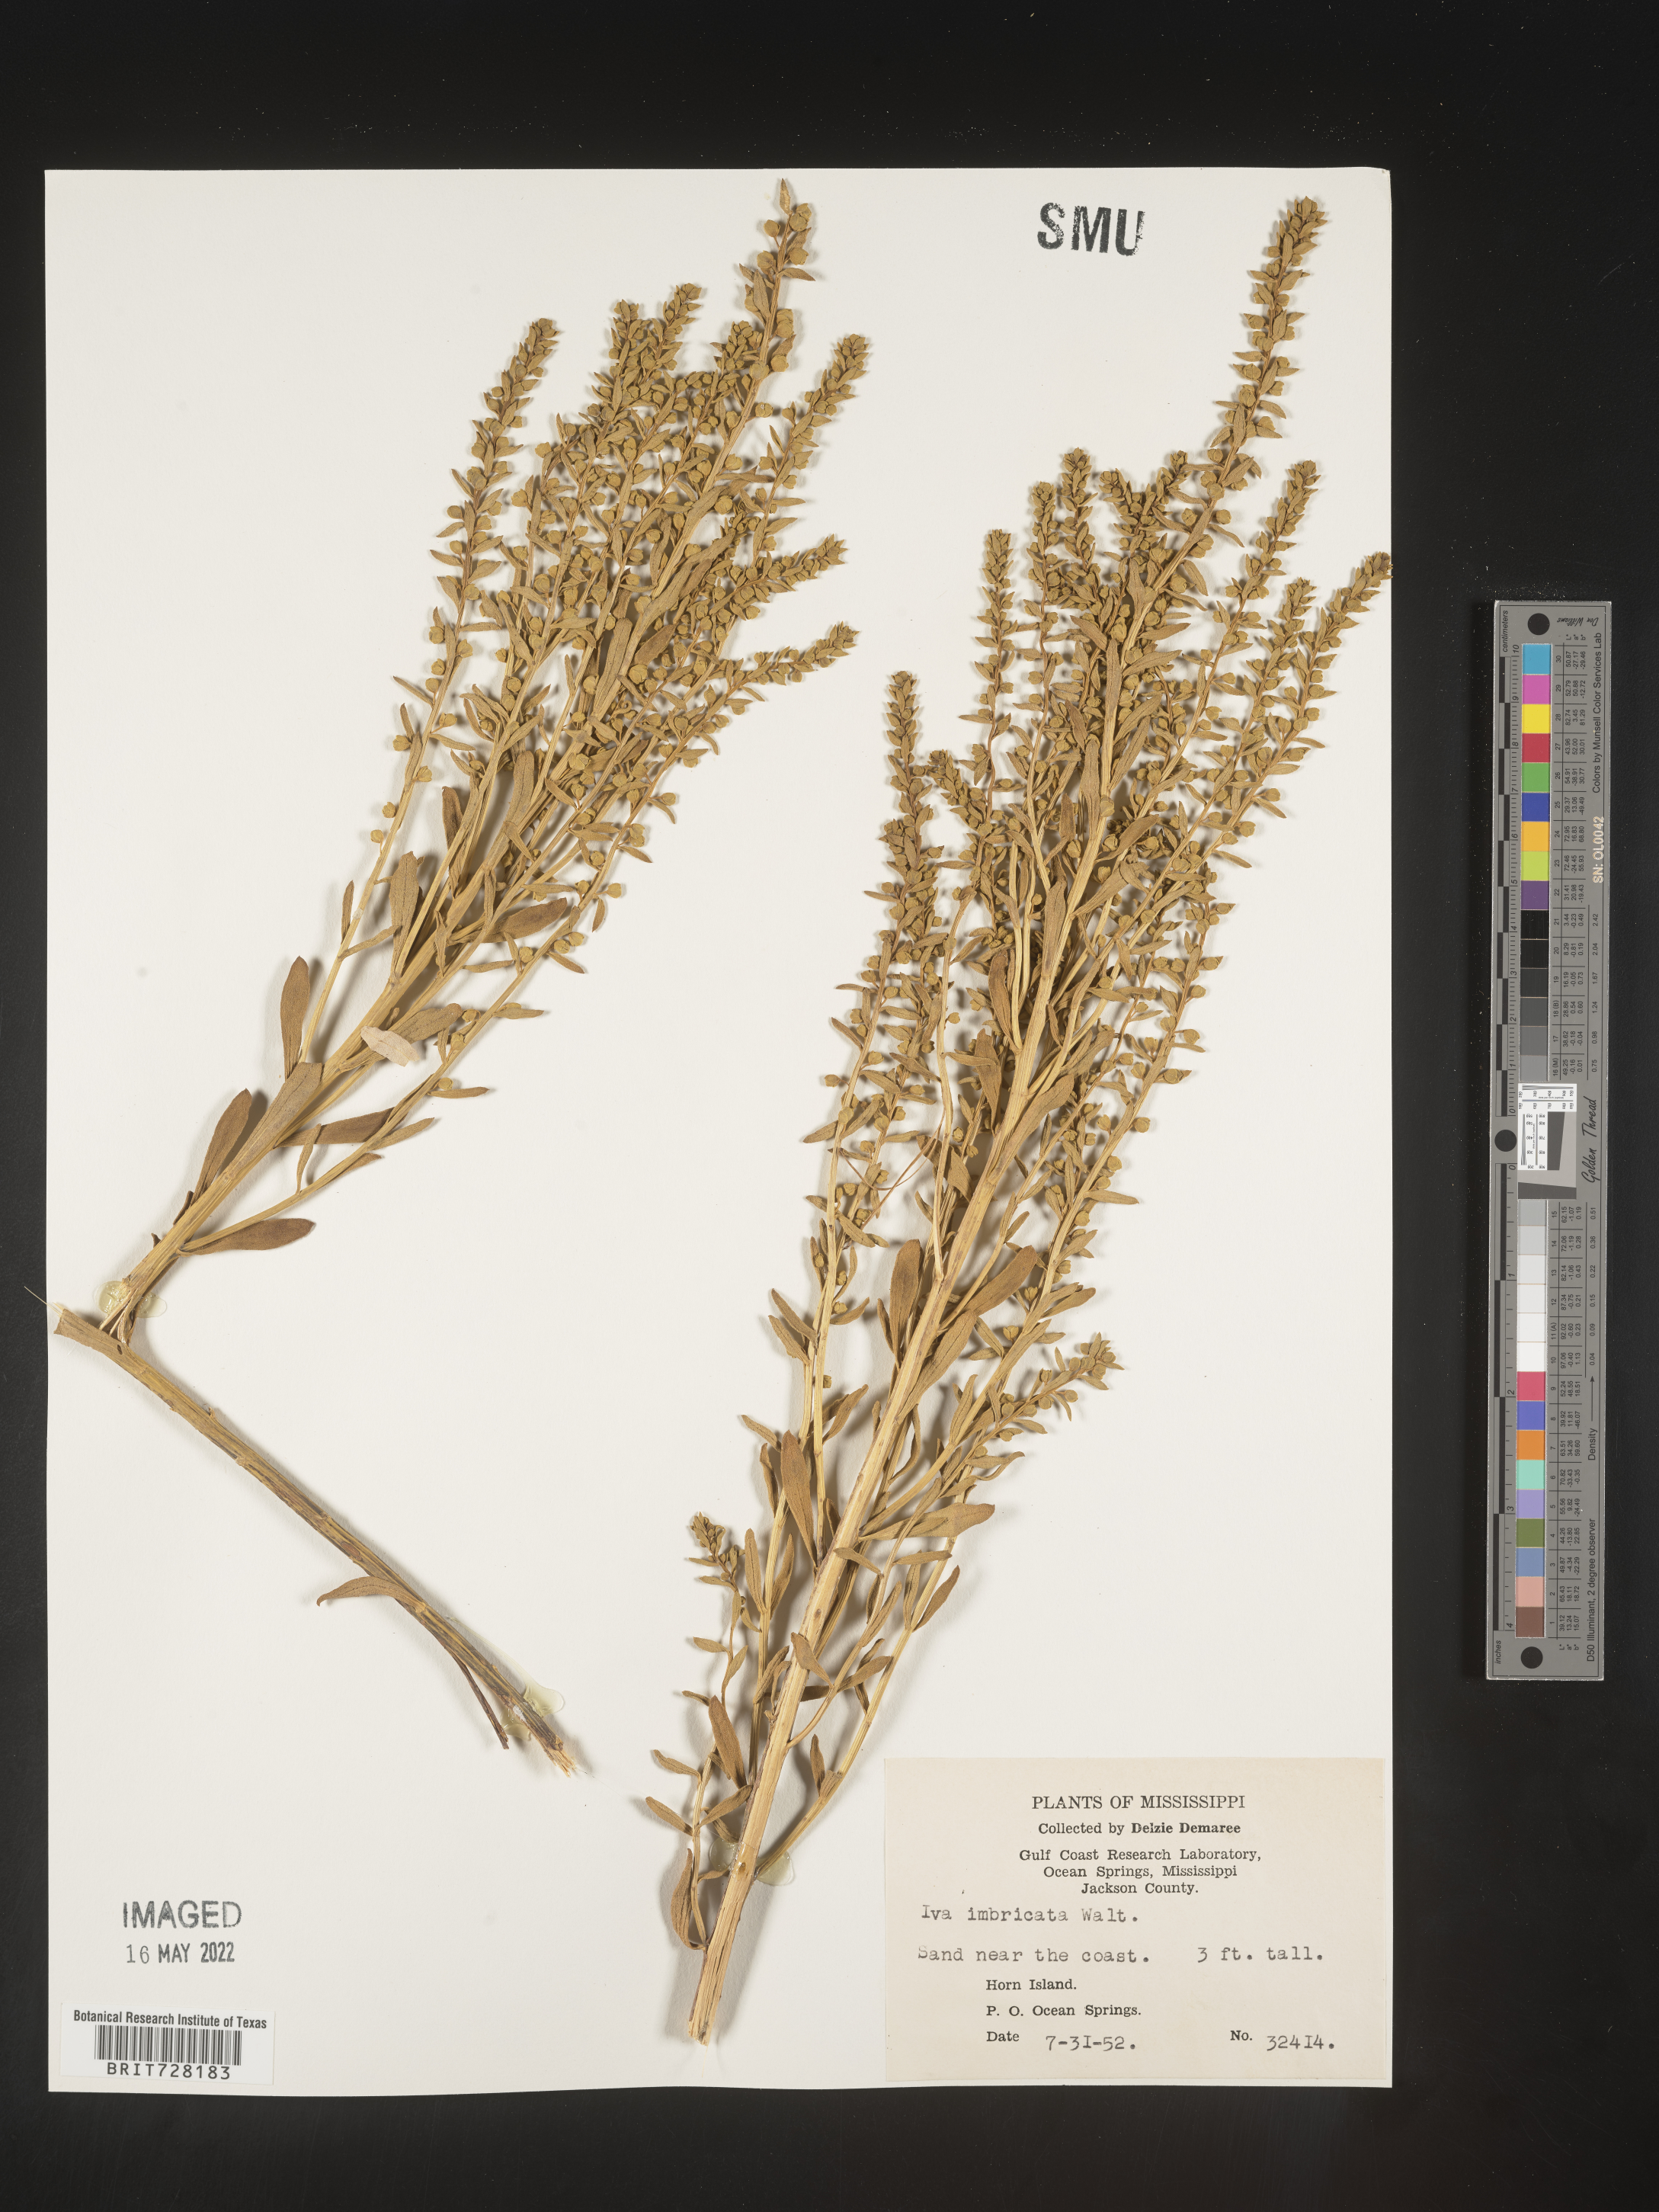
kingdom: Plantae
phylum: Tracheophyta
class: Magnoliopsida
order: Asterales
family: Asteraceae
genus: Iva
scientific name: Iva imbricata
